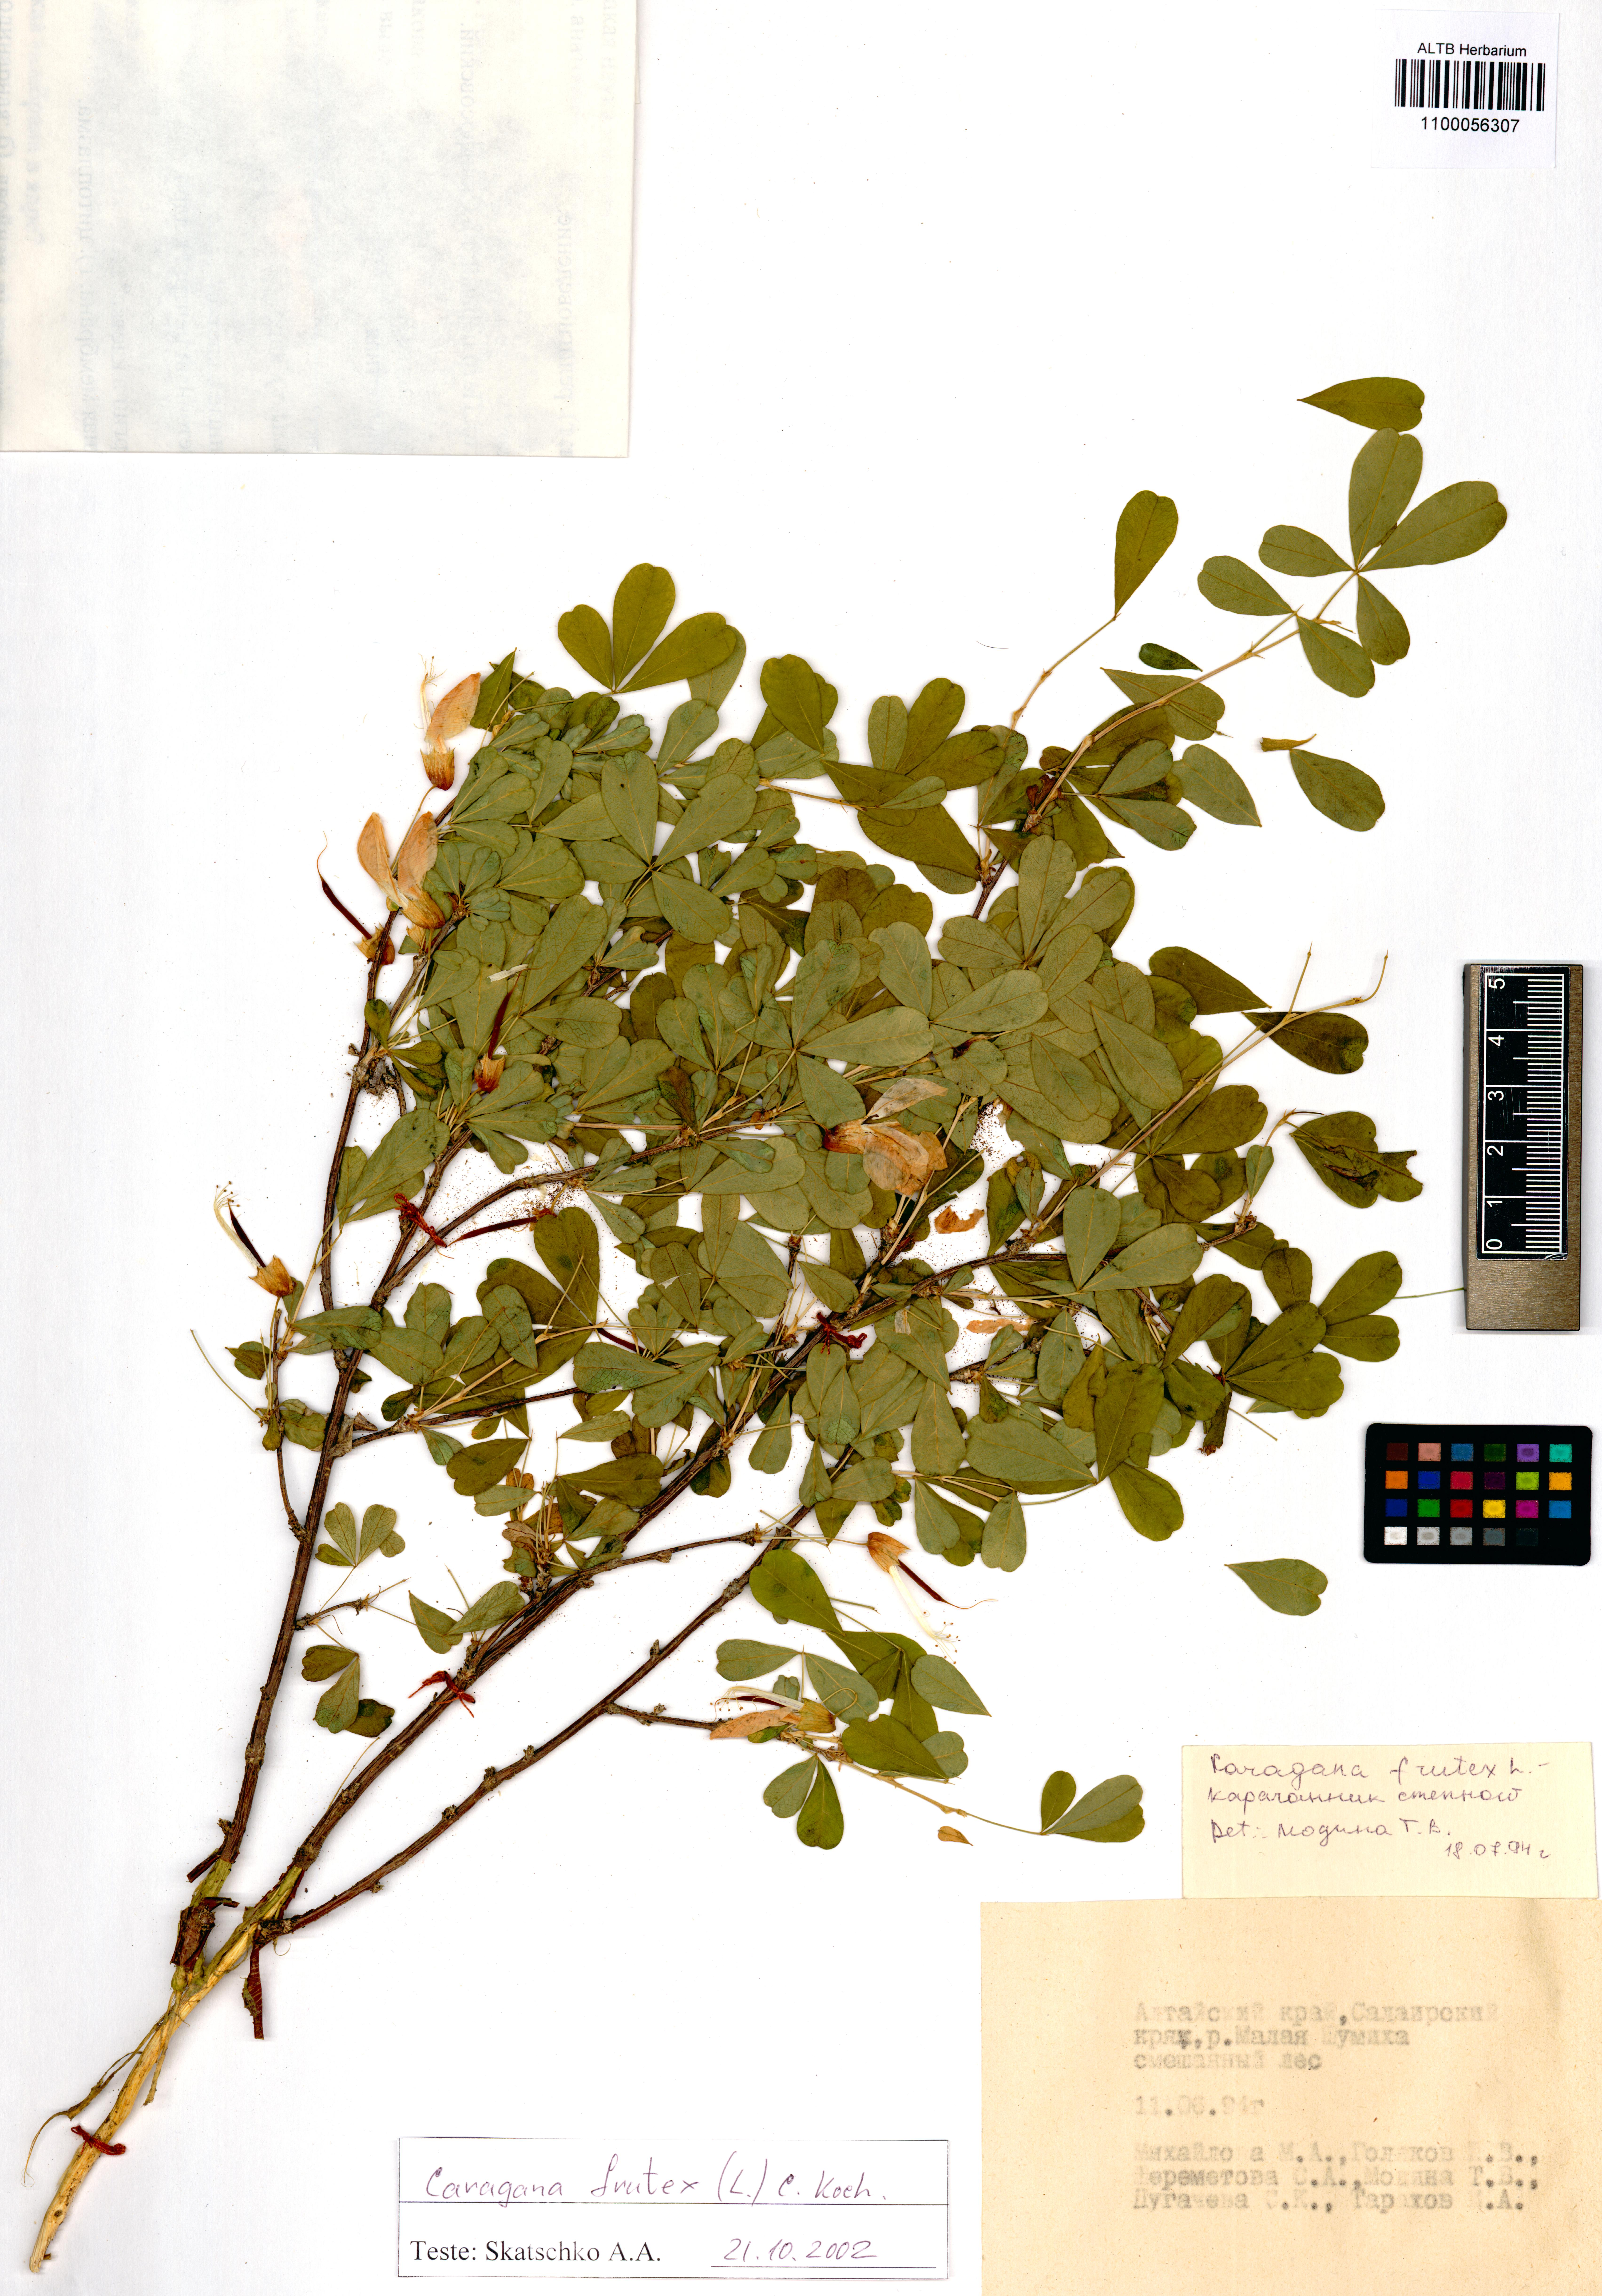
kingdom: Plantae
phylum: Tracheophyta
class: Magnoliopsida
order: Fabales
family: Fabaceae
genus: Caragana
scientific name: Caragana frutex
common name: Russian peashrub
